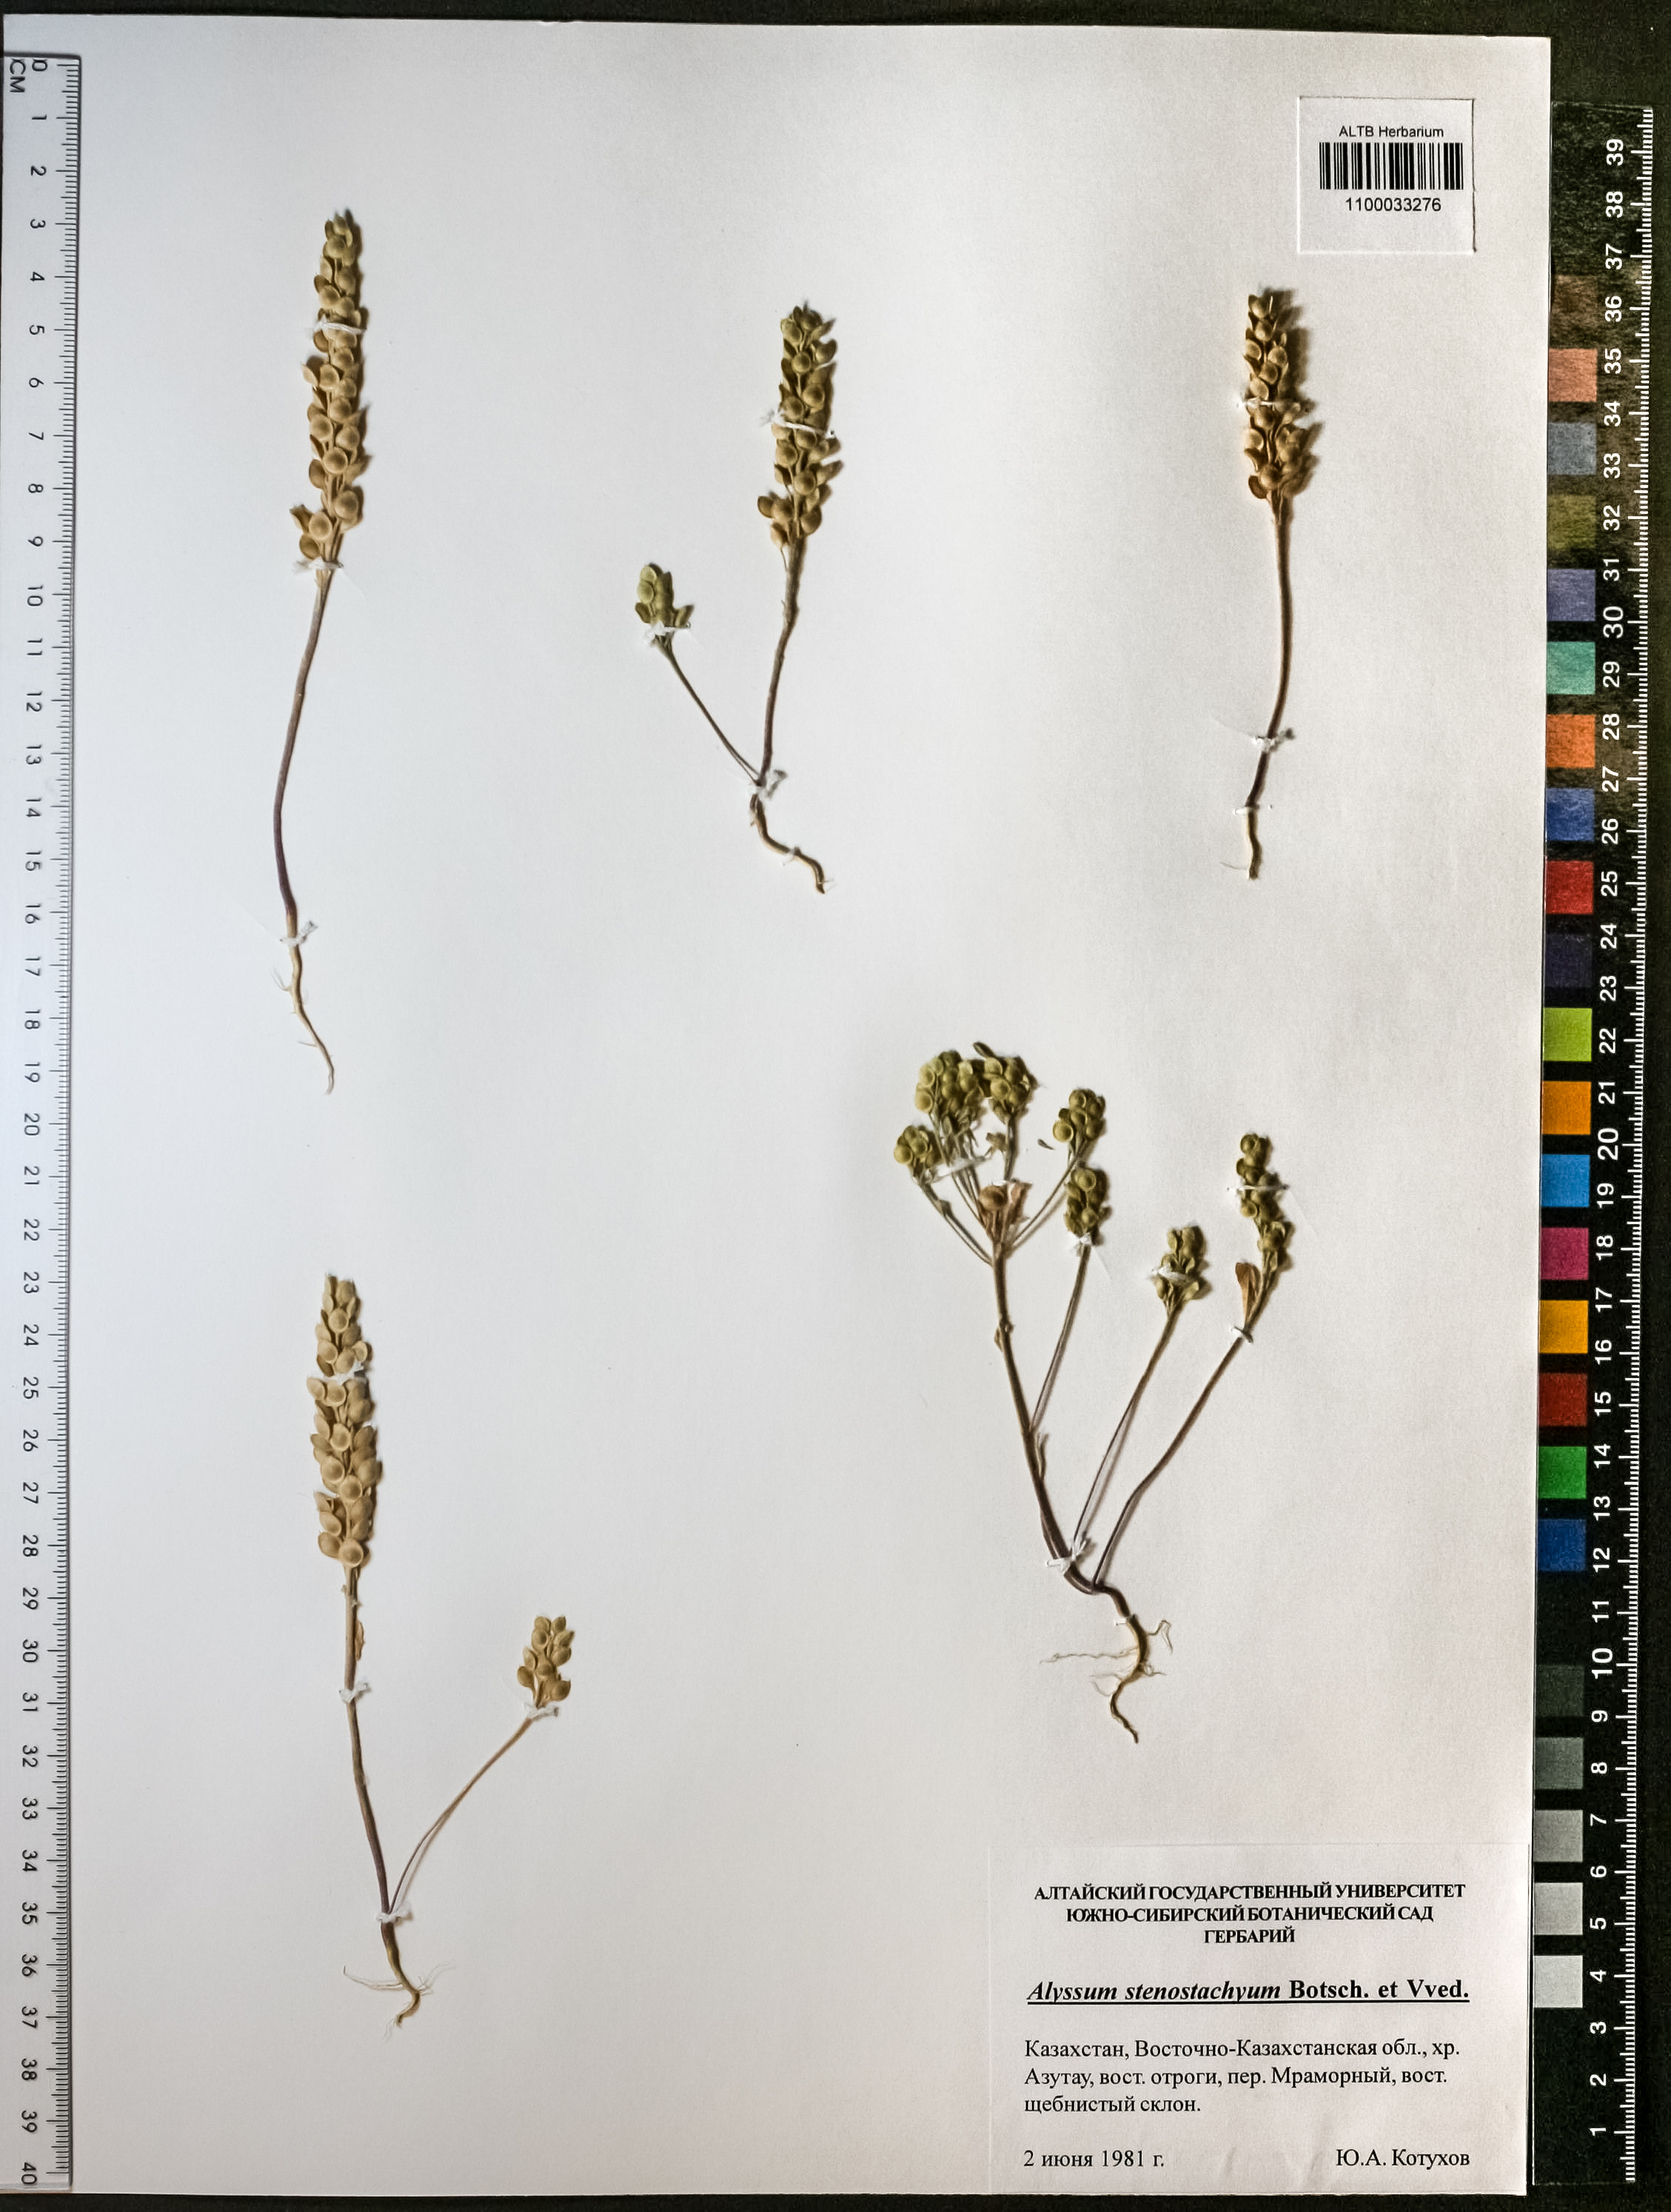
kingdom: Plantae
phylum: Tracheophyta
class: Magnoliopsida
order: Brassicales
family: Brassicaceae
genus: Alyssum
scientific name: Alyssum szovitsianum
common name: Szowits' madwort
